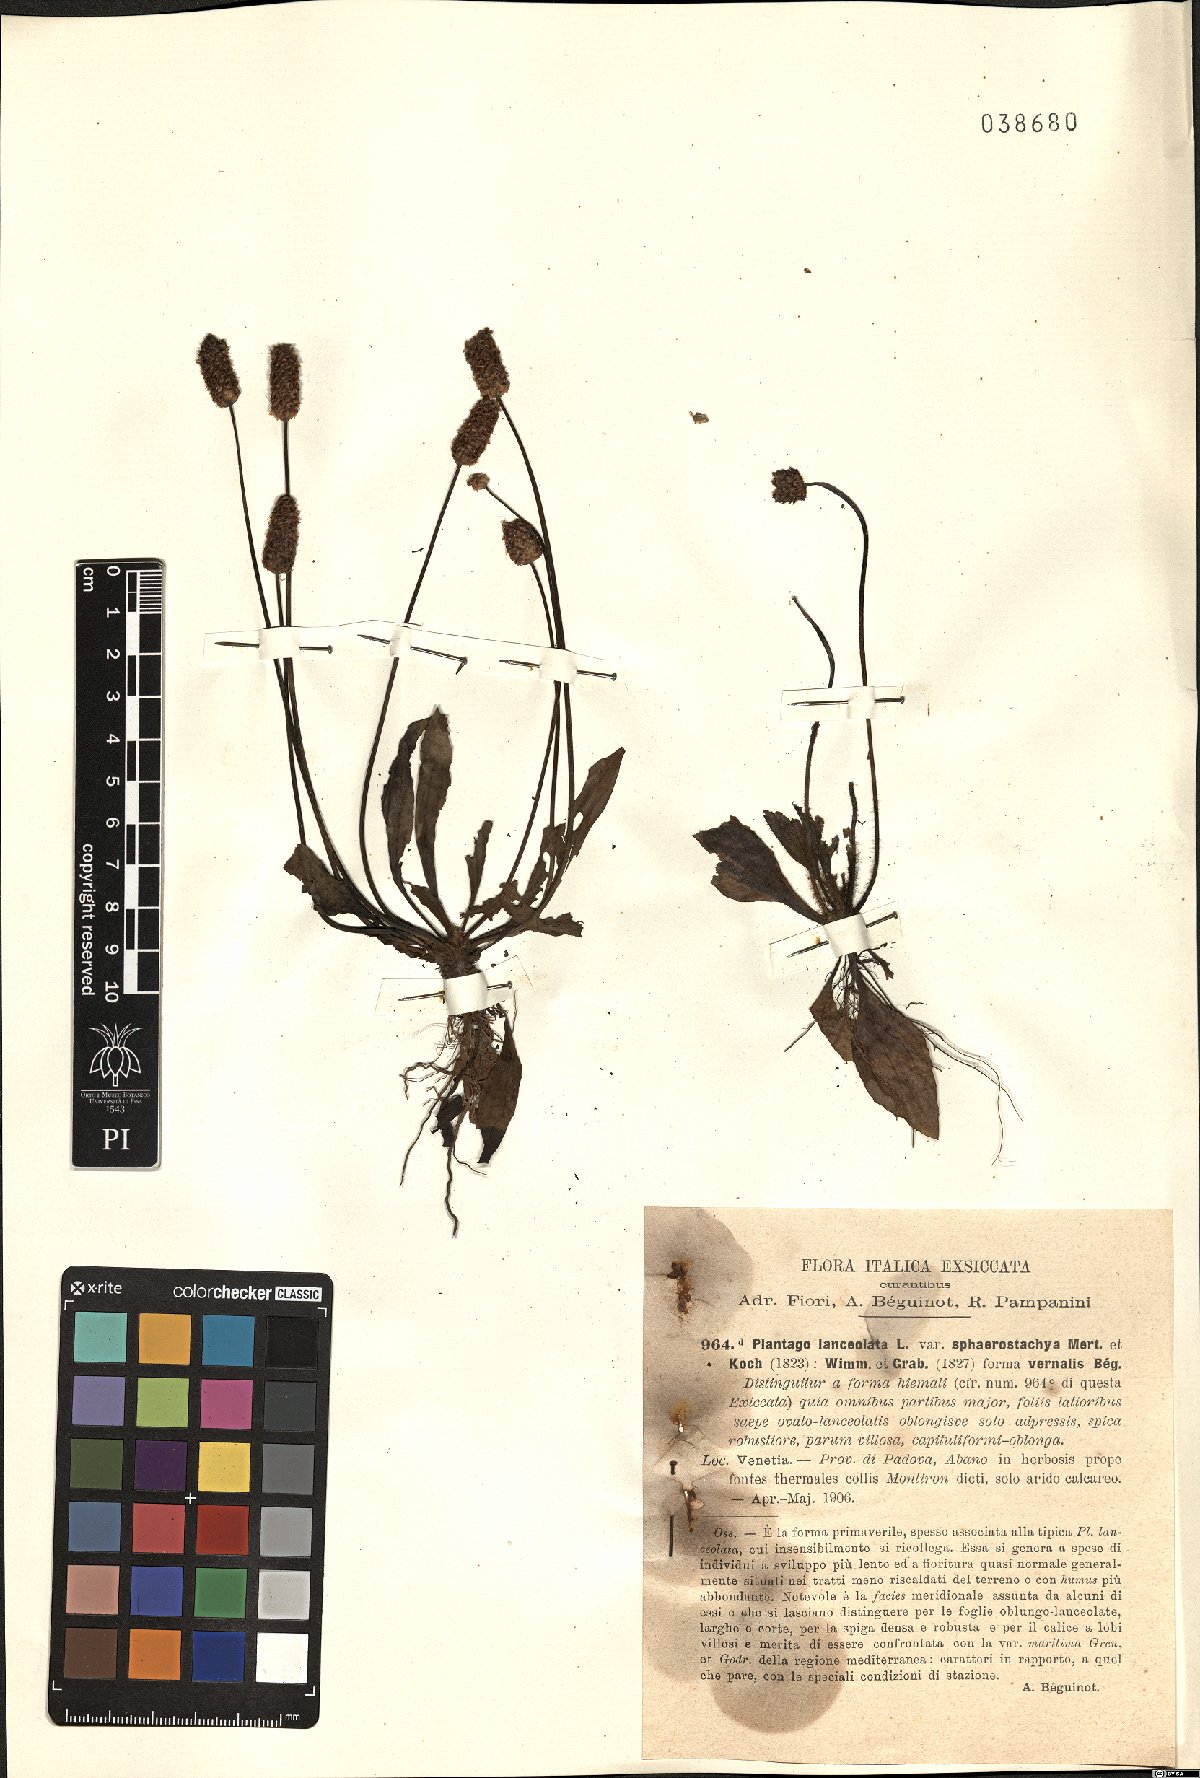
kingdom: Plantae
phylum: Tracheophyta
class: Magnoliopsida
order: Lamiales
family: Plantaginaceae
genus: Plantago
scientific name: Plantago lanceolata
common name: Ribwort plantain
